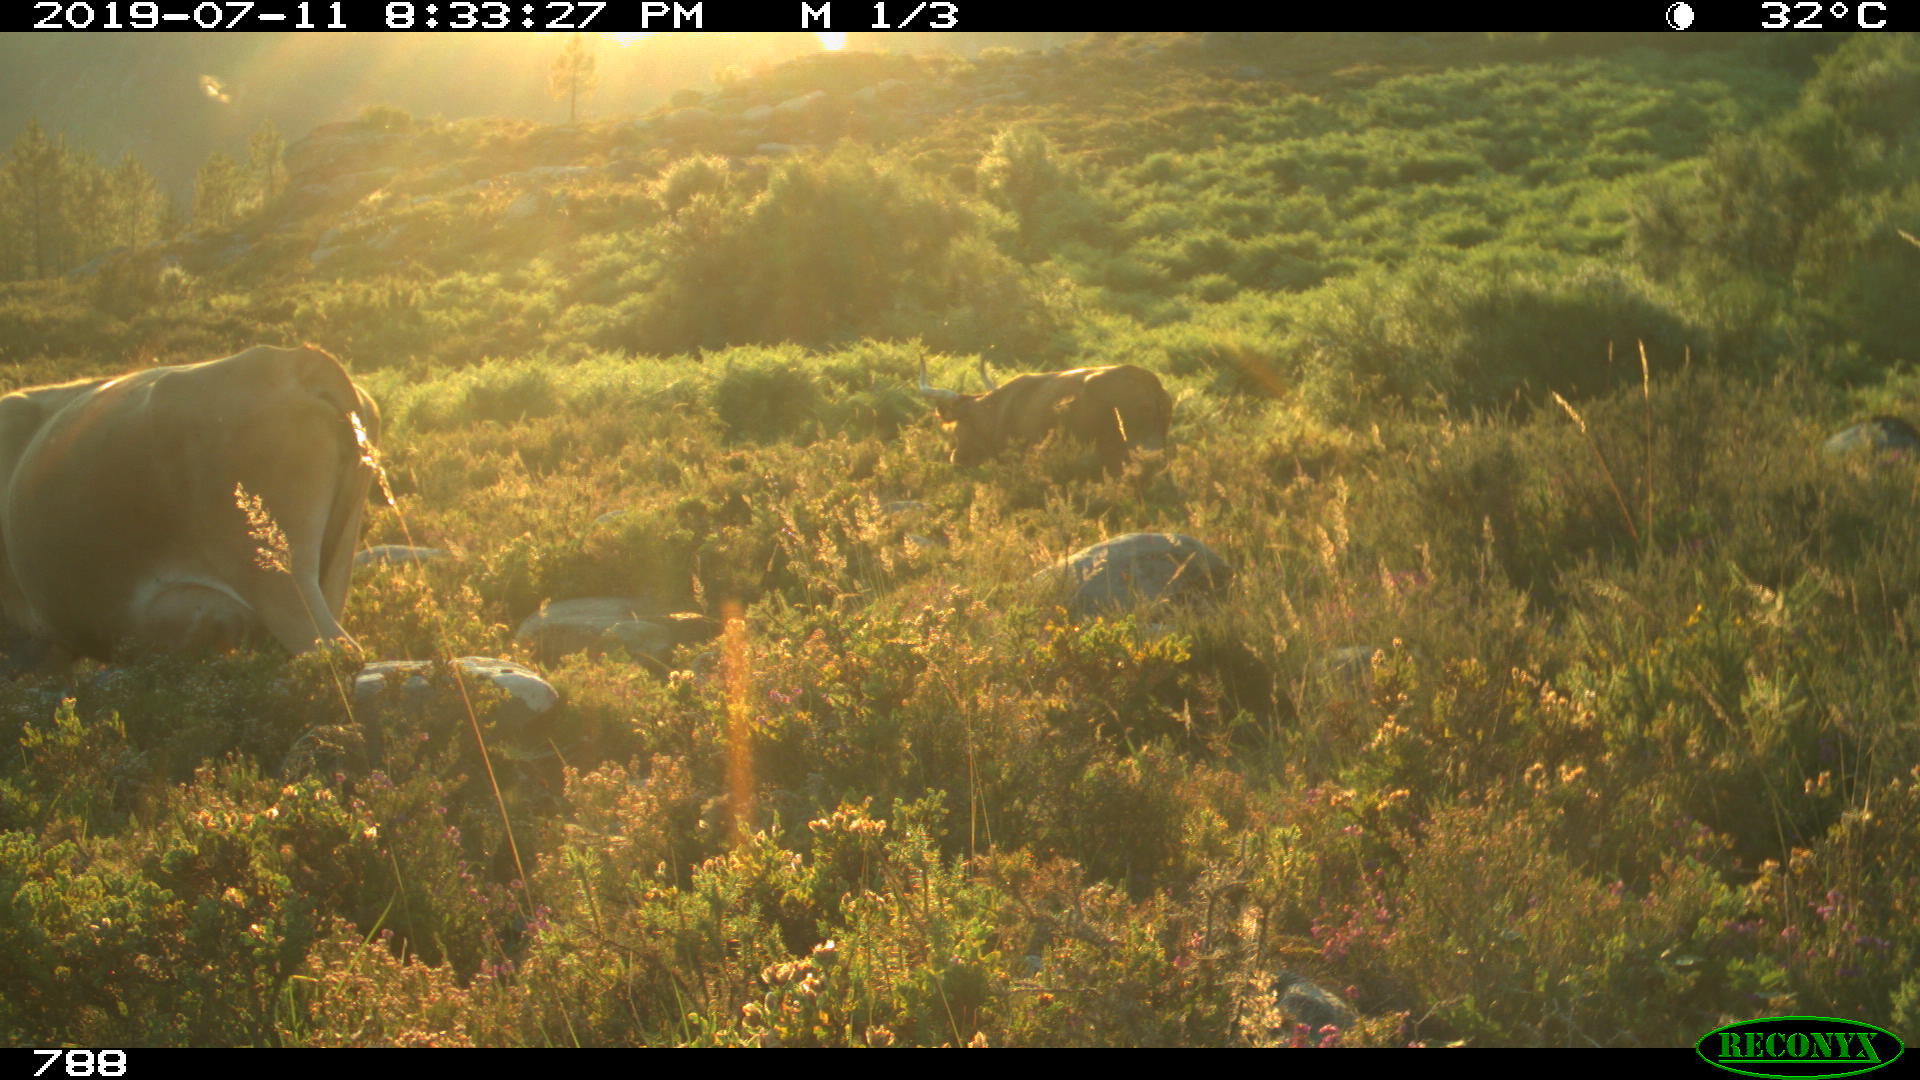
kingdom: Animalia
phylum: Chordata
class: Mammalia
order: Artiodactyla
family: Bovidae
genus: Bos
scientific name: Bos taurus
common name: Domesticated cattle
